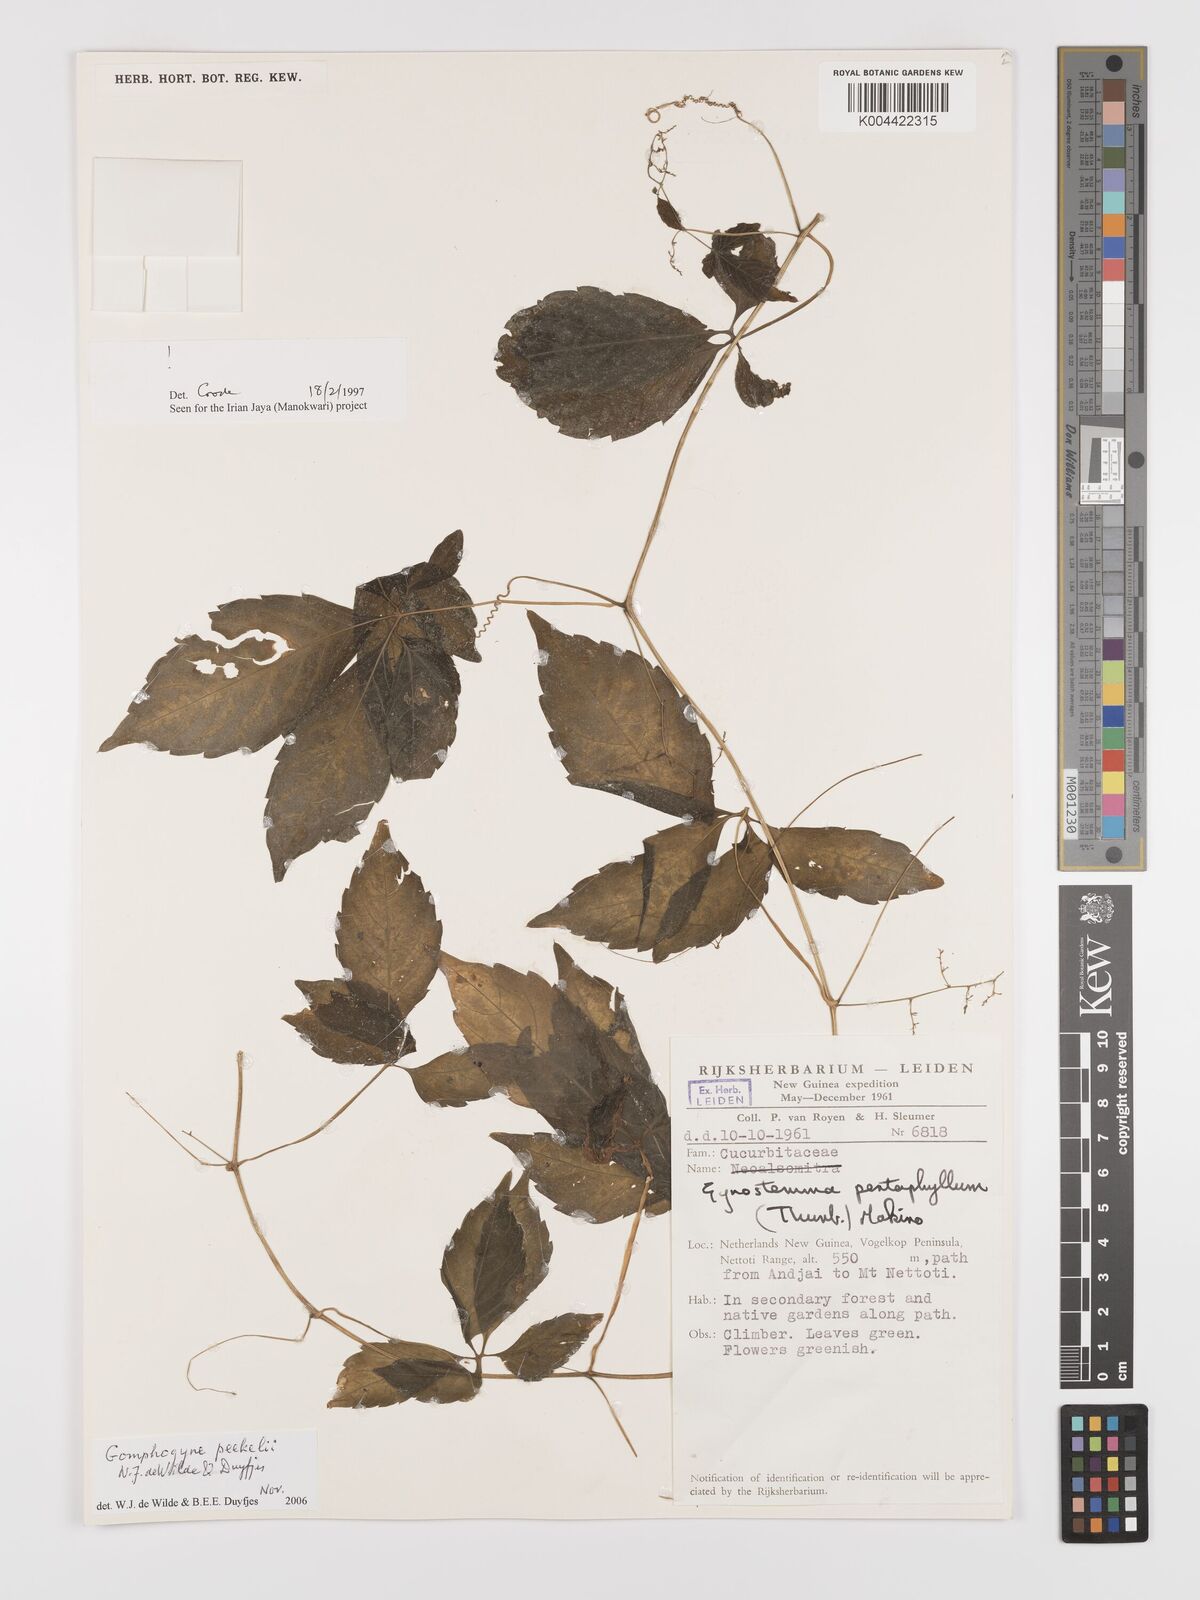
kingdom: Plantae
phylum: Tracheophyta
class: Magnoliopsida
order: Cucurbitales
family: Cucurbitaceae
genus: Hemsleya
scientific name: Hemsleya peekelii
